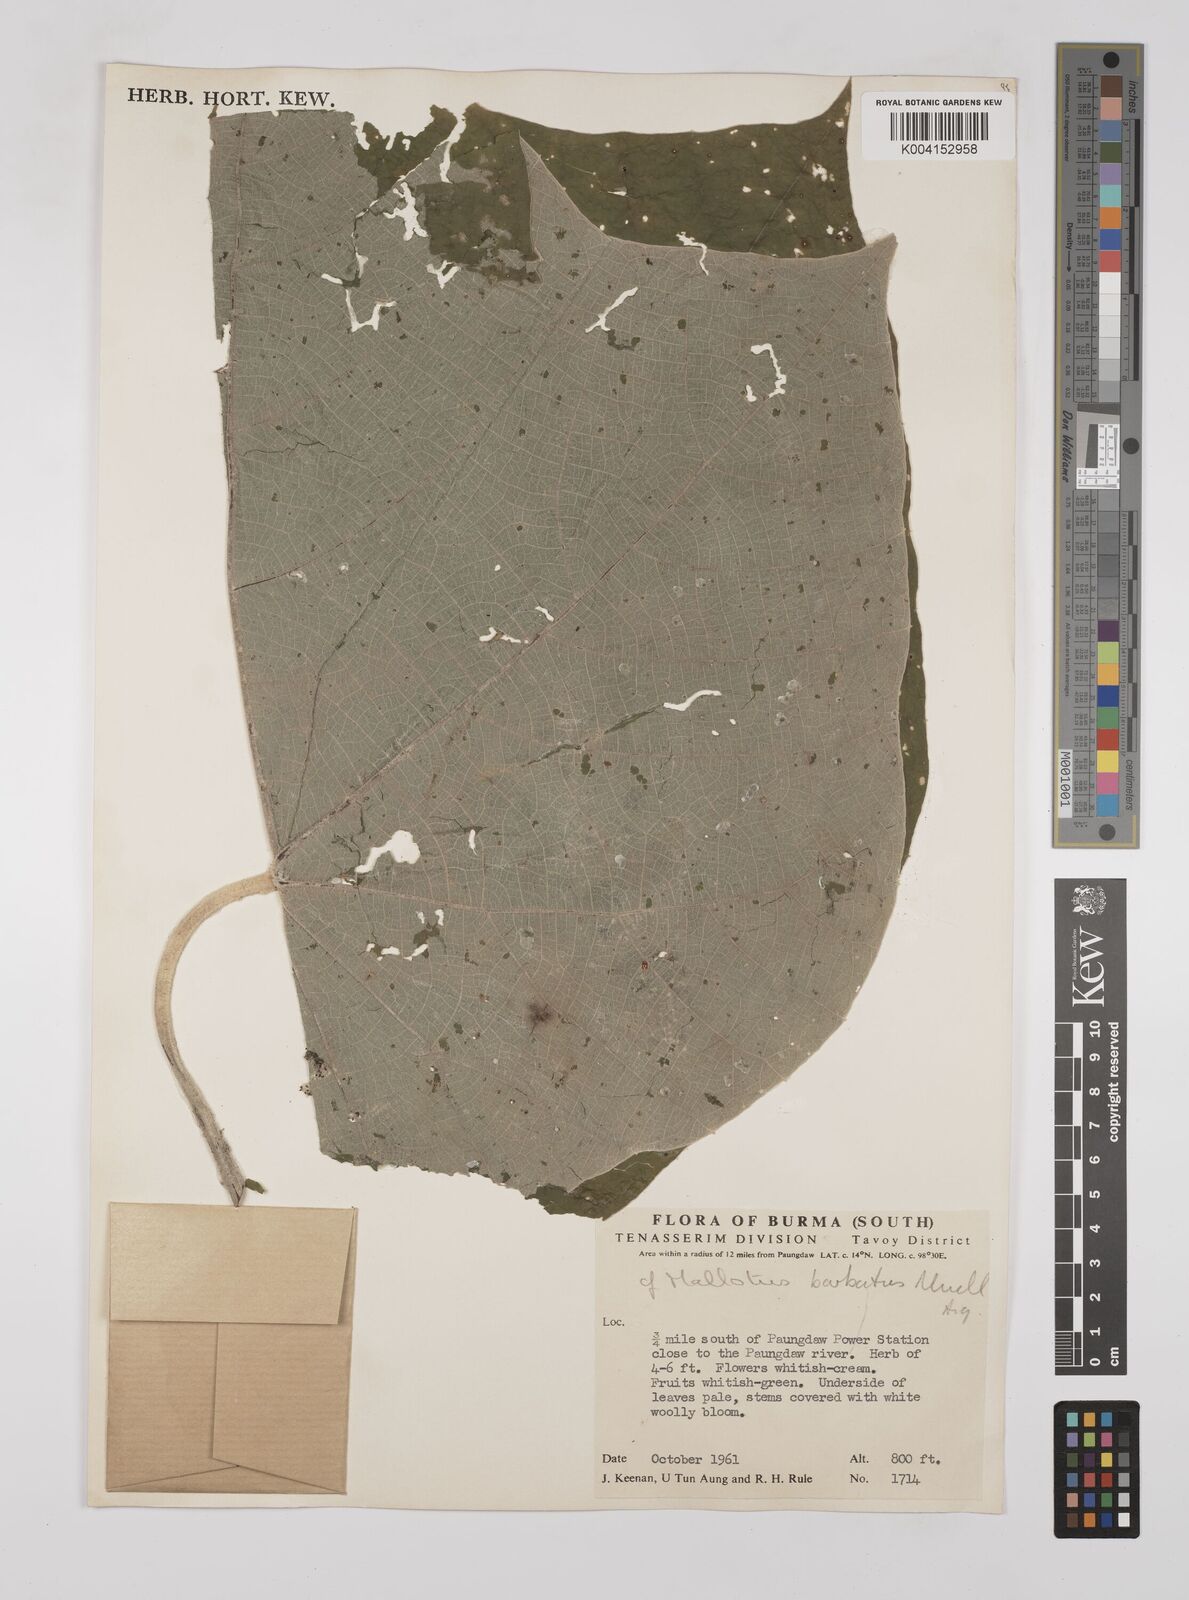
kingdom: Plantae
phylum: Tracheophyta
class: Magnoliopsida
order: Malpighiales
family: Euphorbiaceae
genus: Mallotus
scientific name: Mallotus barbatus
